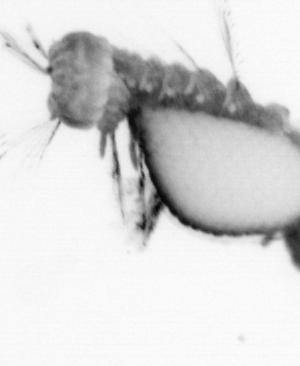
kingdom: Animalia
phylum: Annelida
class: Polychaeta
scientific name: Polychaeta
